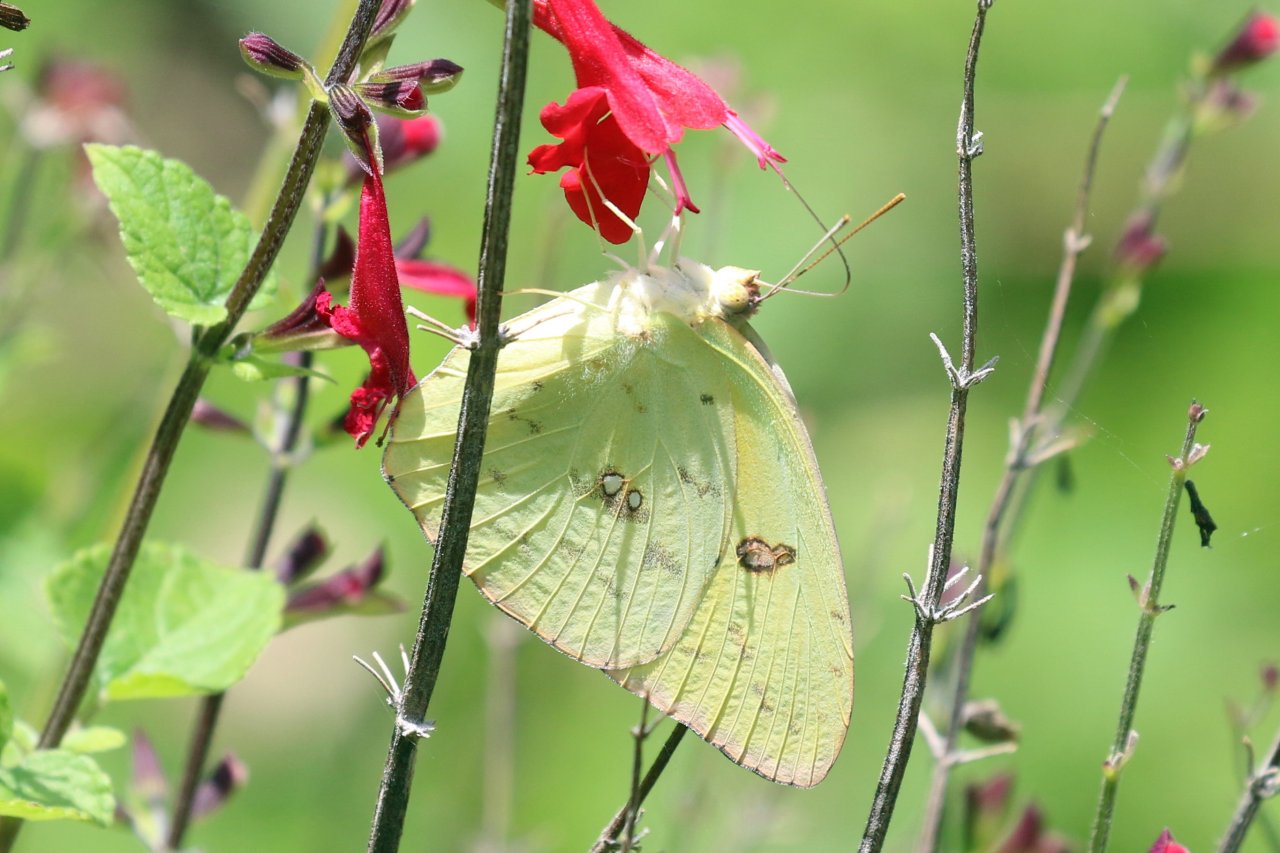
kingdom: Animalia
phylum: Arthropoda
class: Insecta
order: Lepidoptera
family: Pieridae
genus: Phoebis
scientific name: Phoebis sennae
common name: Cloudless Sulphur
